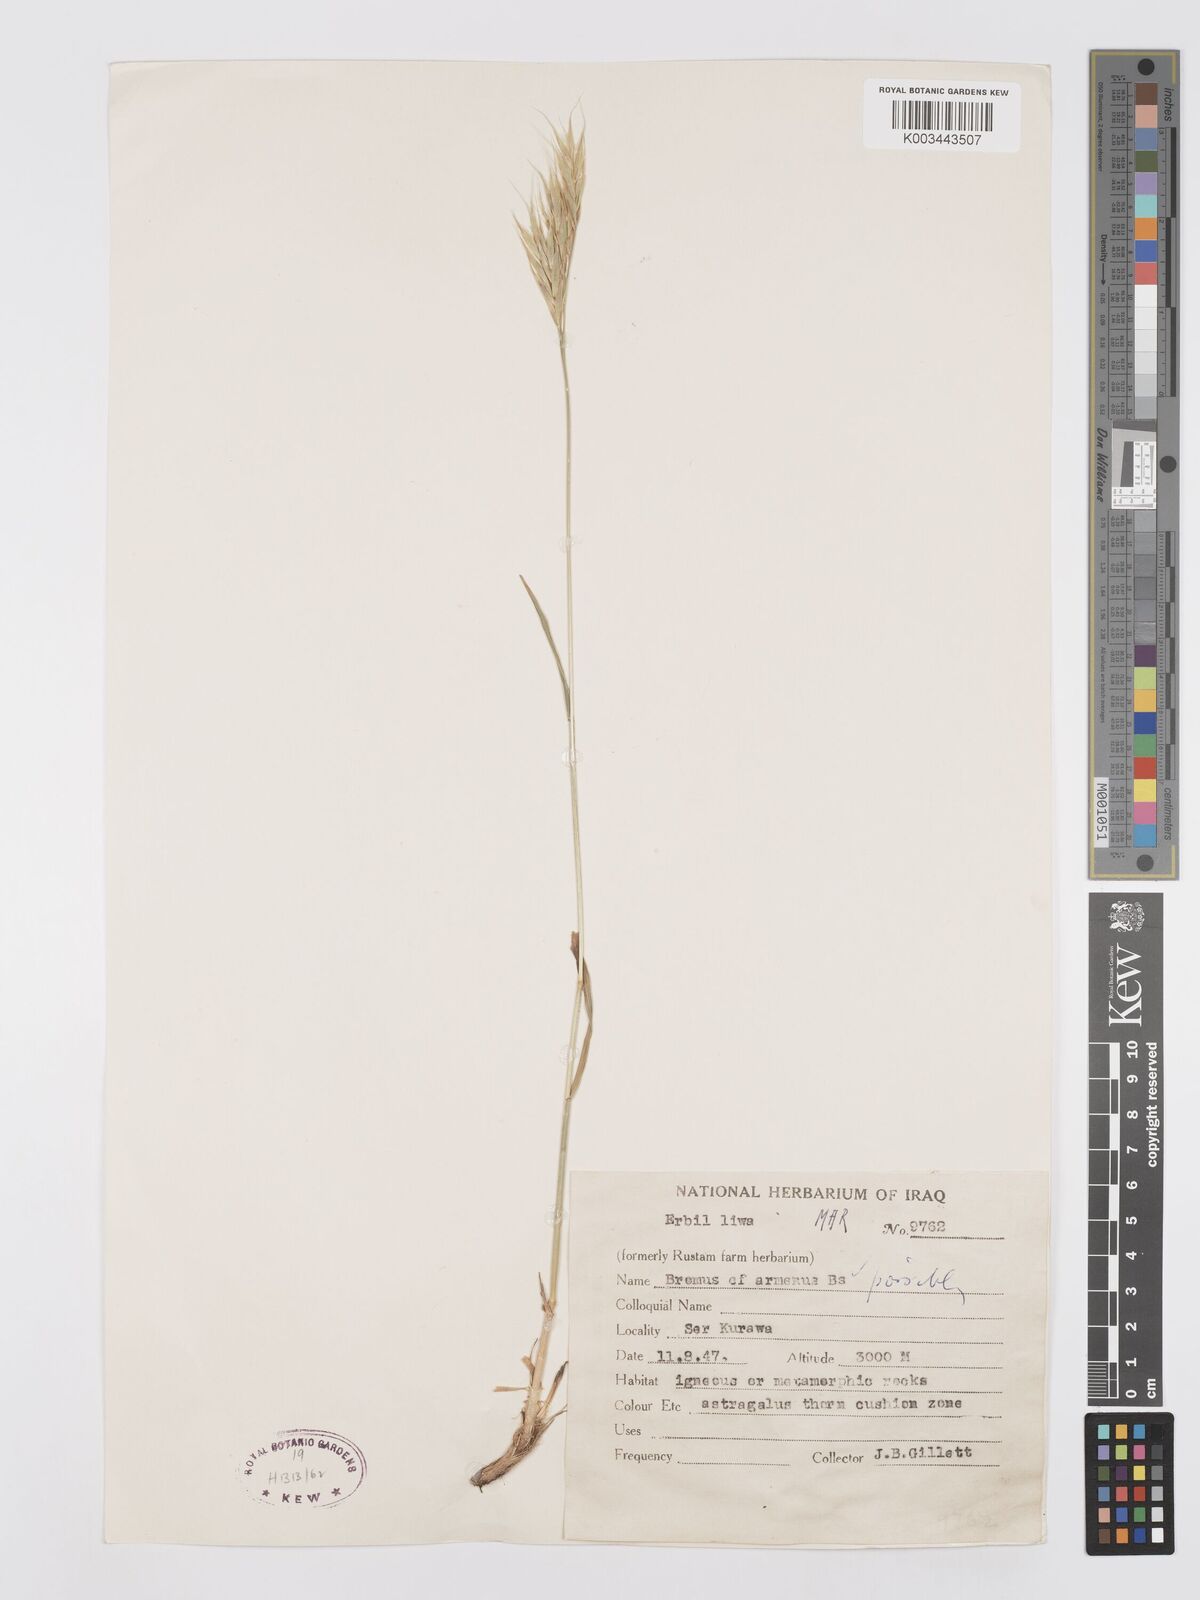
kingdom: Plantae
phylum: Tracheophyta
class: Liliopsida
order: Poales
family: Poaceae
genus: Bromus
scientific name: Bromus tomentellus
